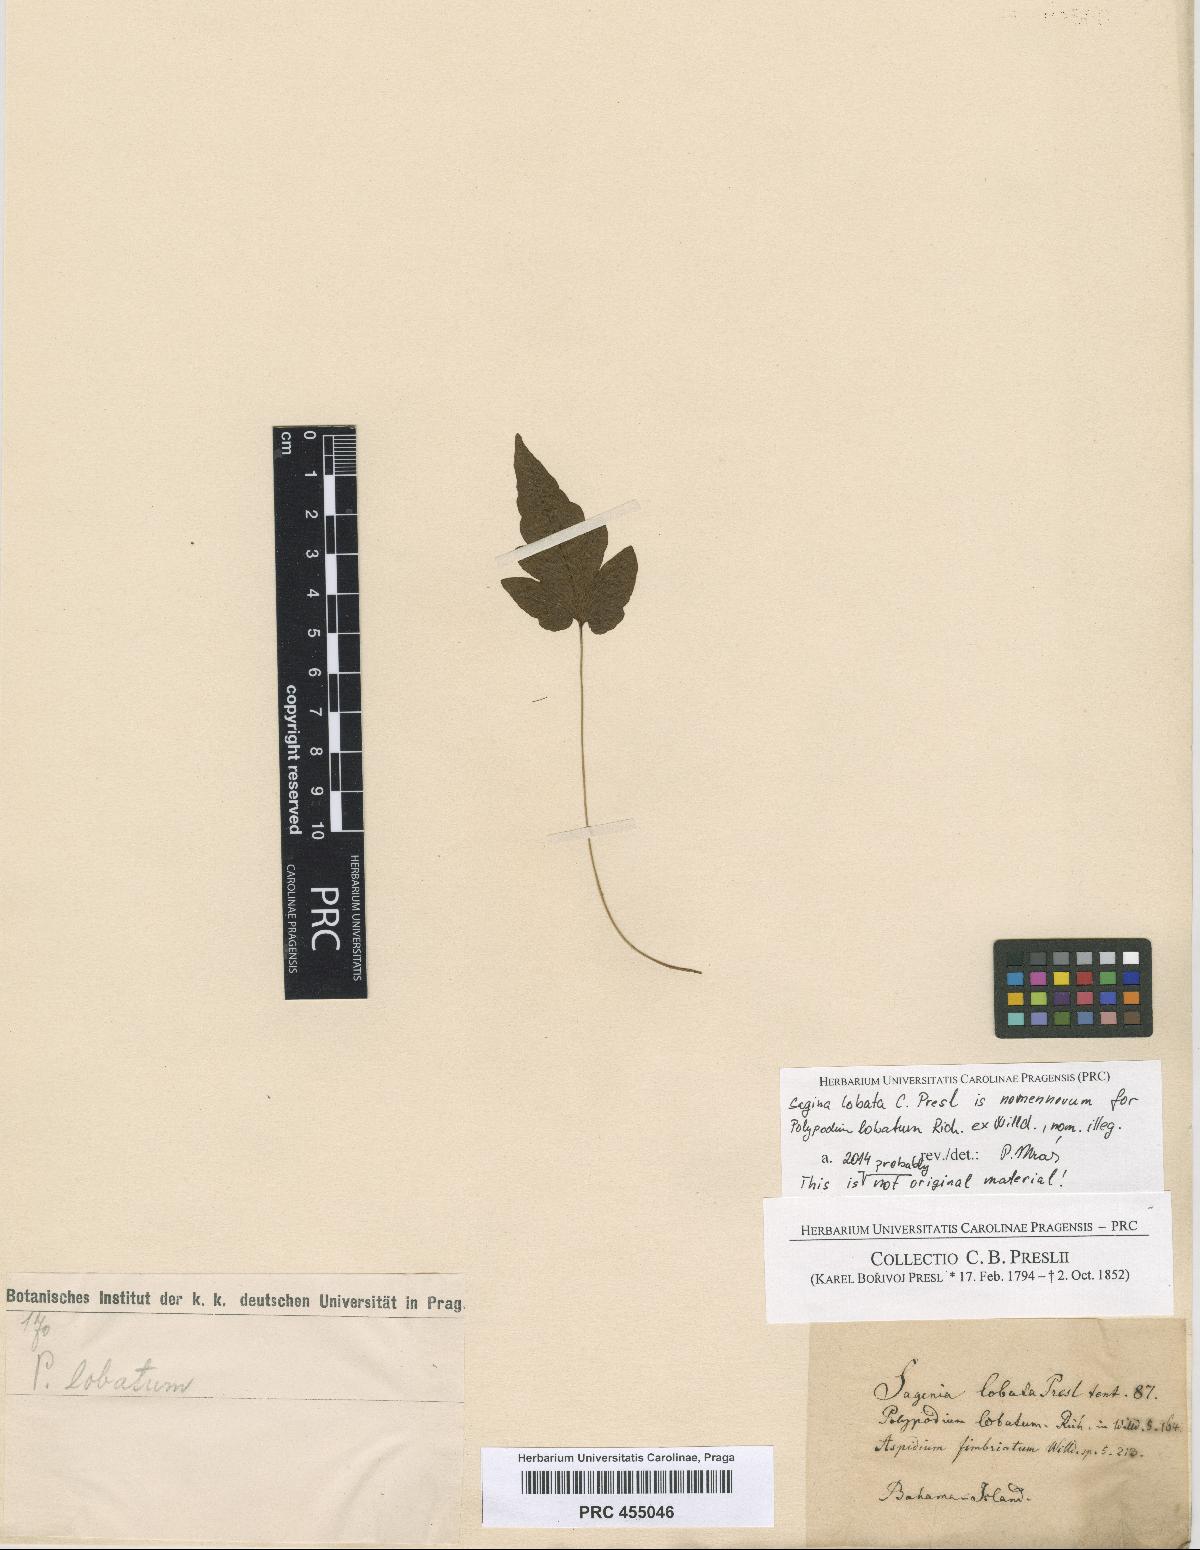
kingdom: Plantae
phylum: Tracheophyta
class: Polypodiopsida
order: Polypodiales
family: Tectariaceae
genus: Tectaria
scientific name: Tectaria fimbriata
